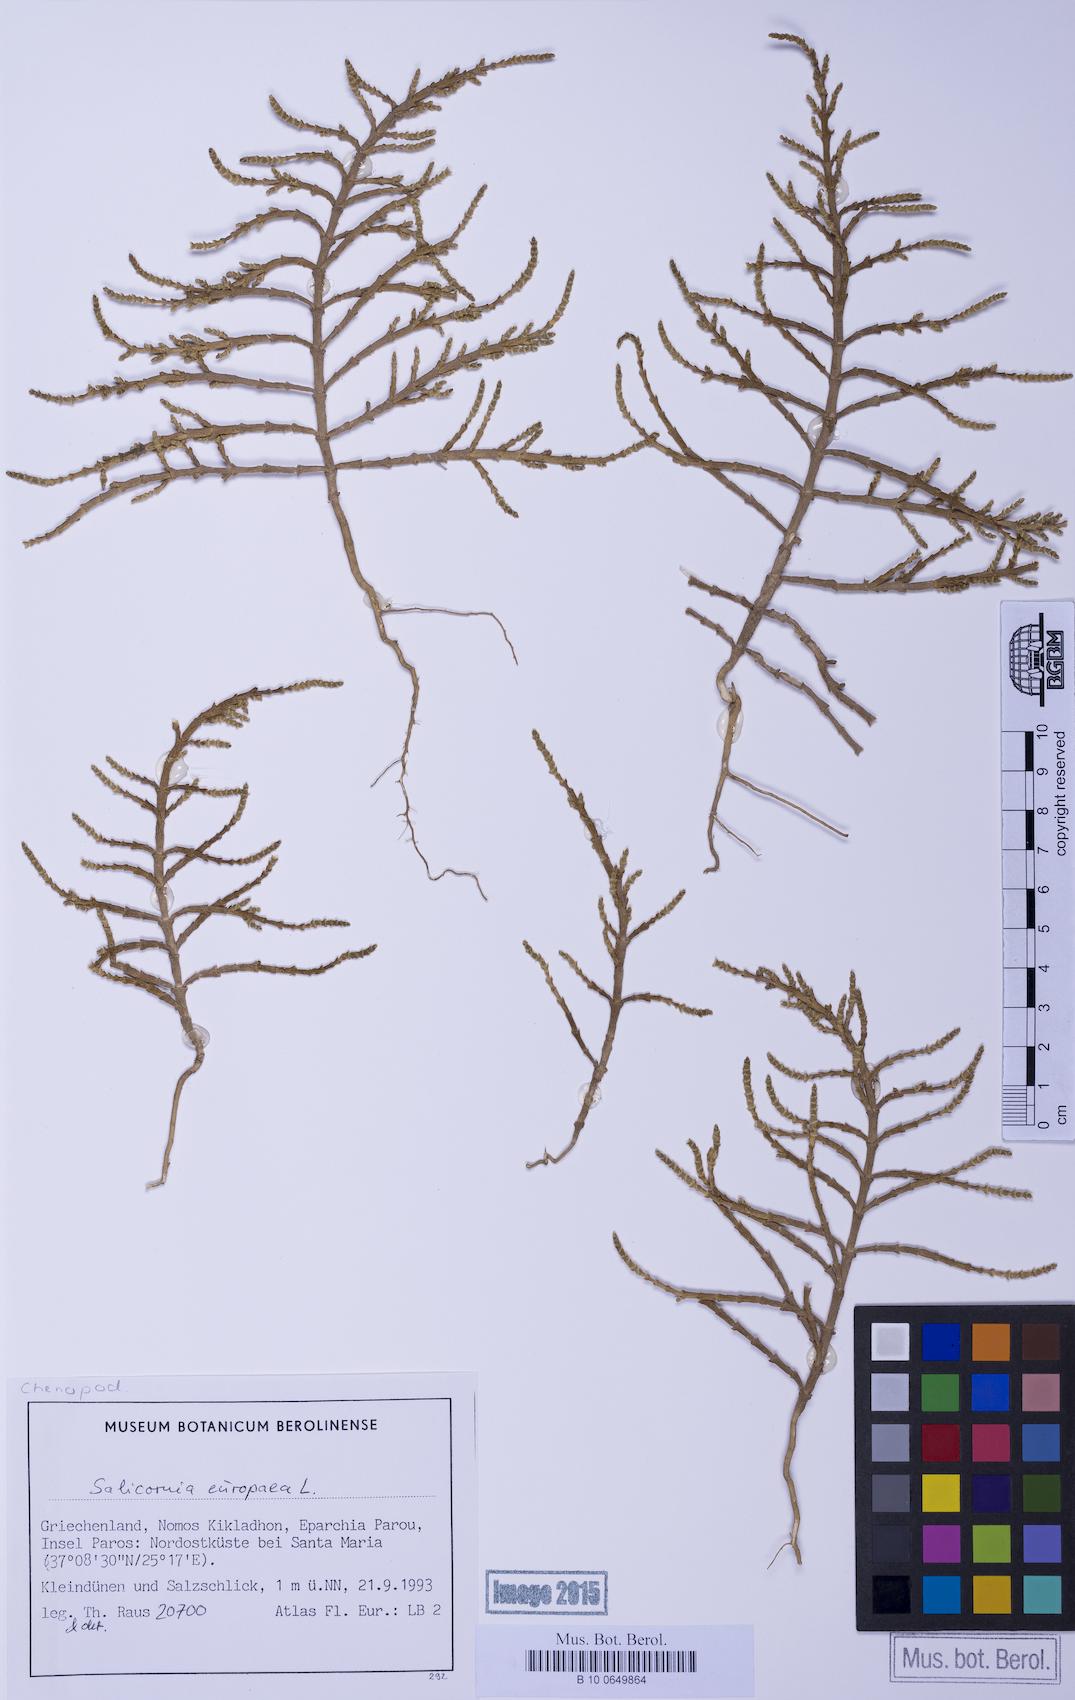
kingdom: Plantae
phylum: Tracheophyta
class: Magnoliopsida
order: Caryophyllales
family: Amaranthaceae
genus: Salicornia
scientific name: Salicornia perennans
